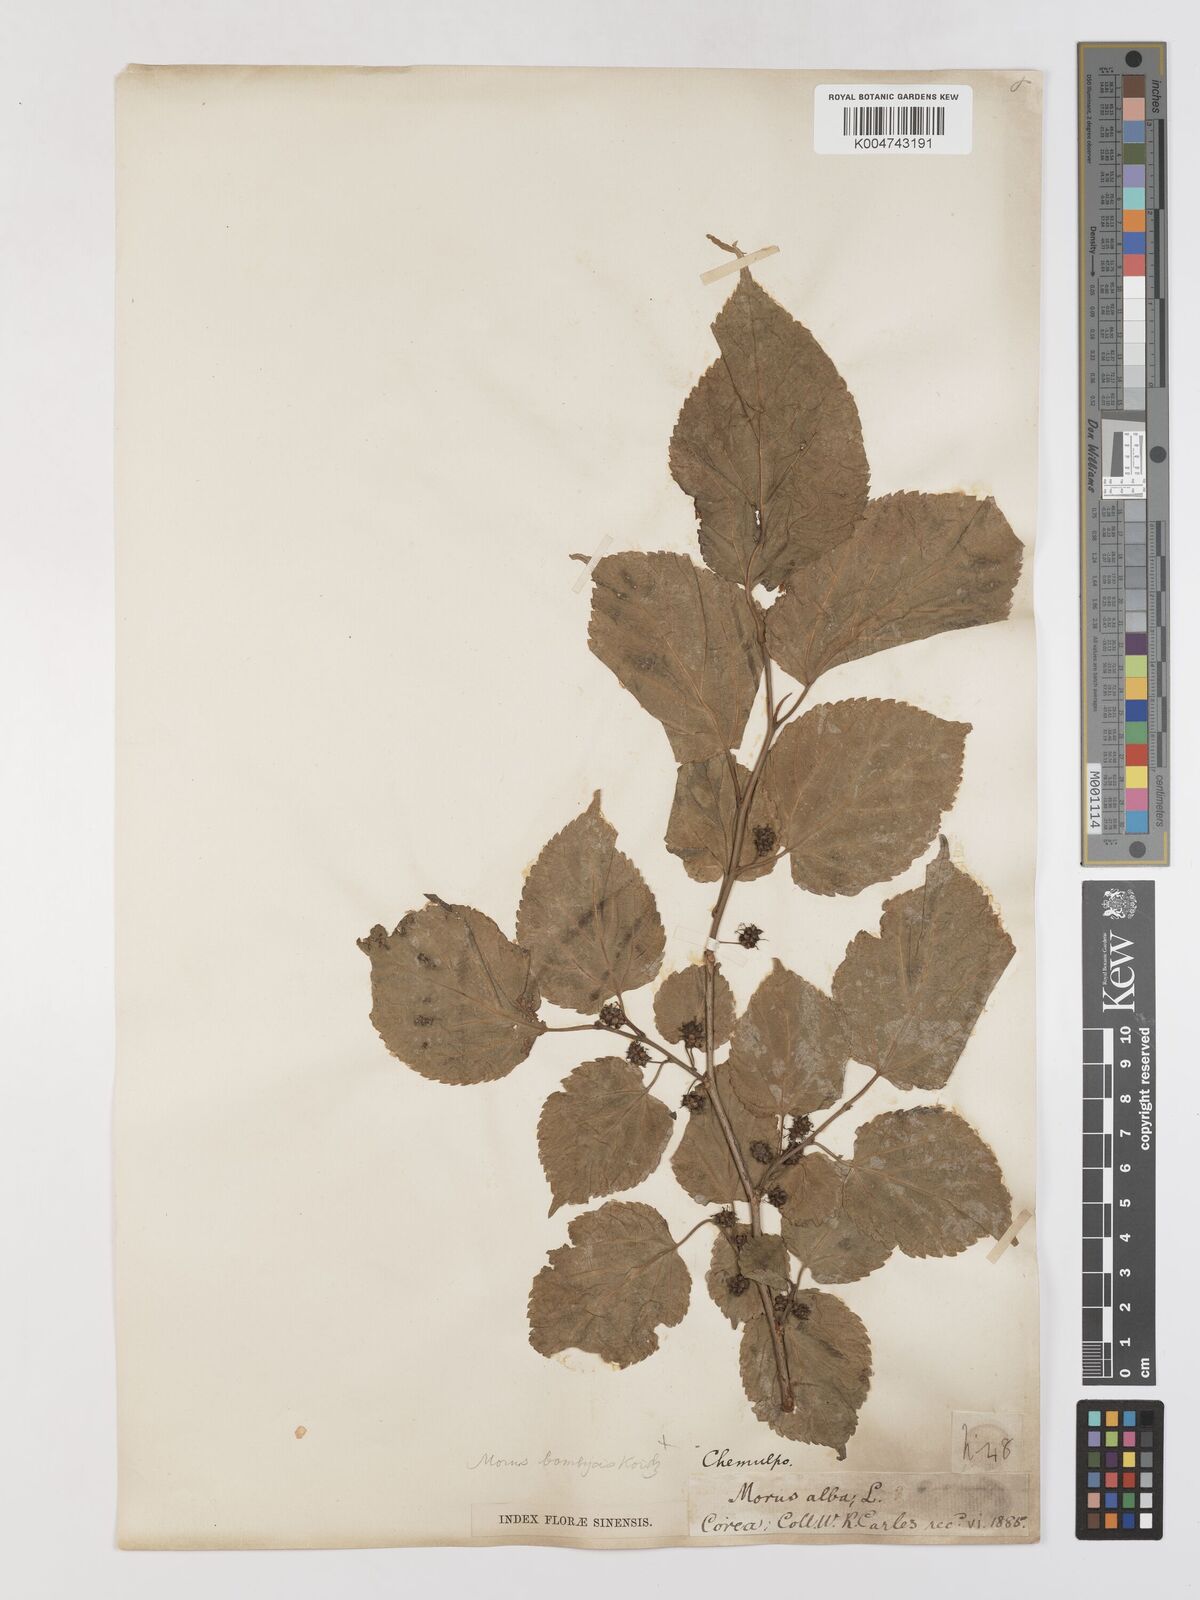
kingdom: Plantae
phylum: Tracheophyta
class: Magnoliopsida
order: Rosales
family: Moraceae
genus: Morus
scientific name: Morus indica
